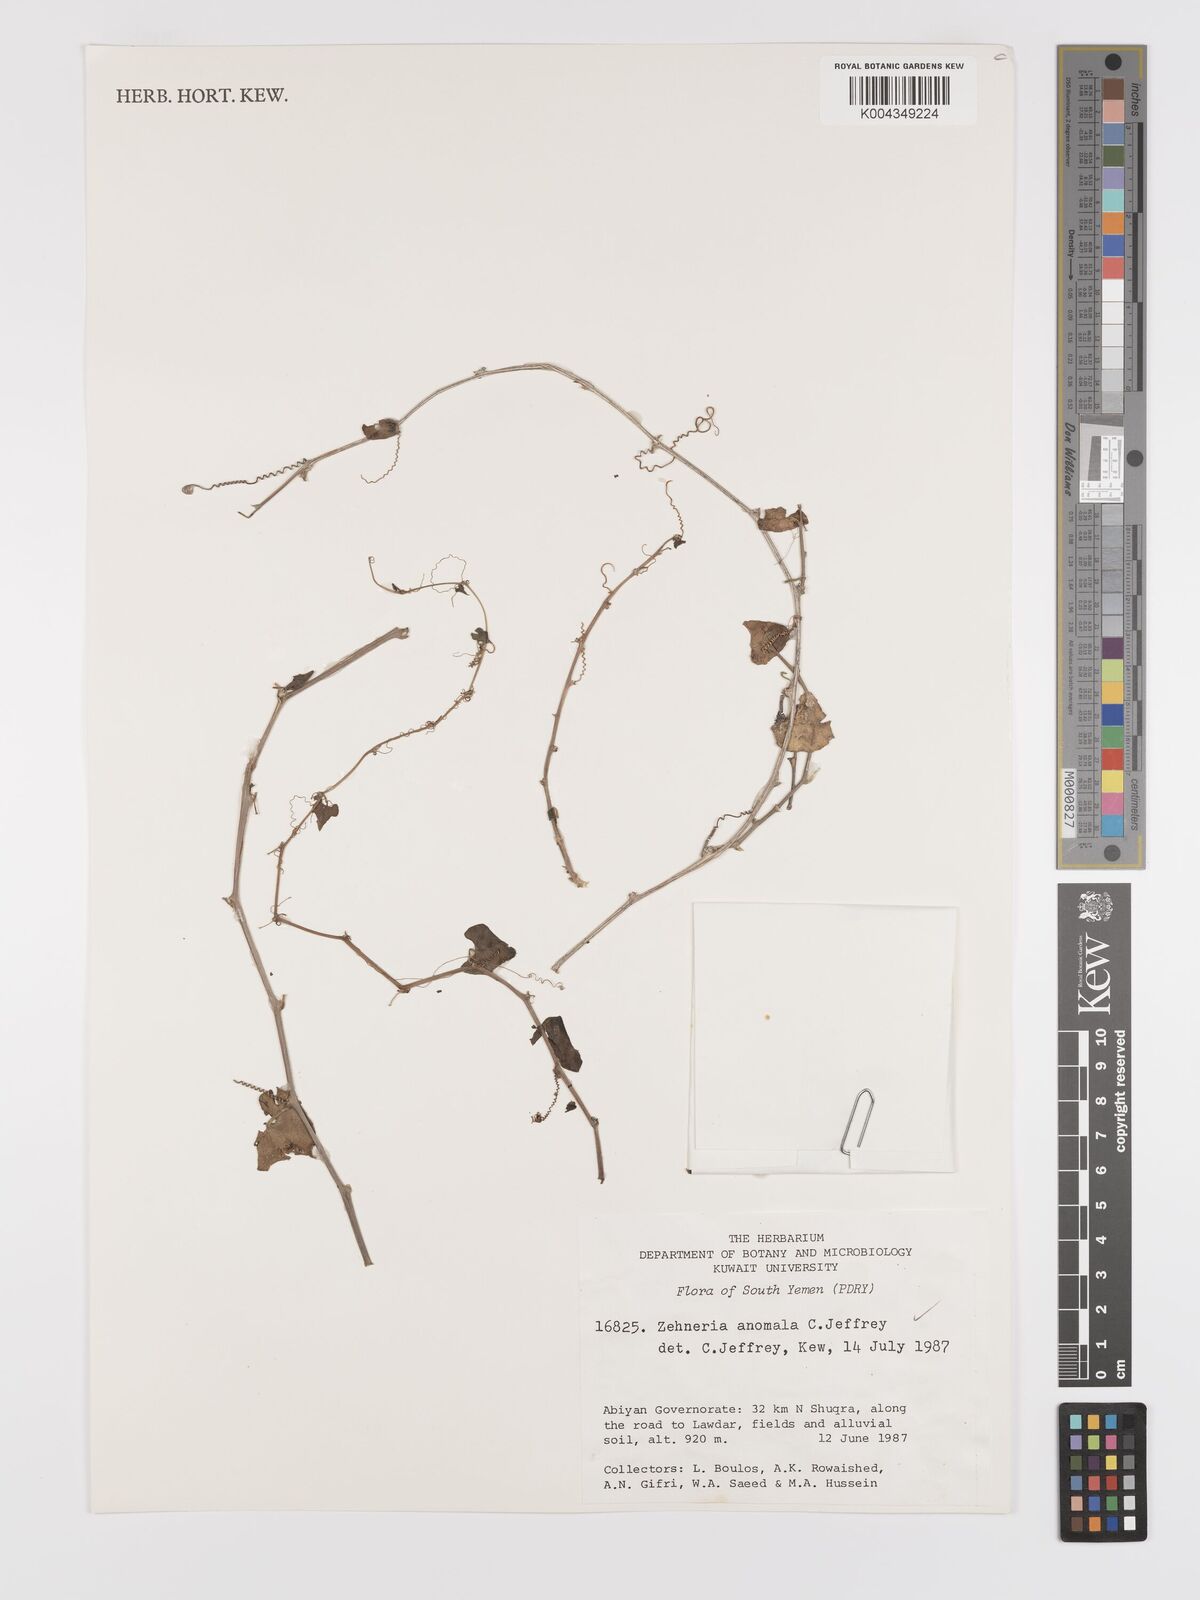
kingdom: Plantae
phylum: Tracheophyta
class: Magnoliopsida
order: Cucurbitales
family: Cucurbitaceae
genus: Zehneria
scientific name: Zehneria anomala
